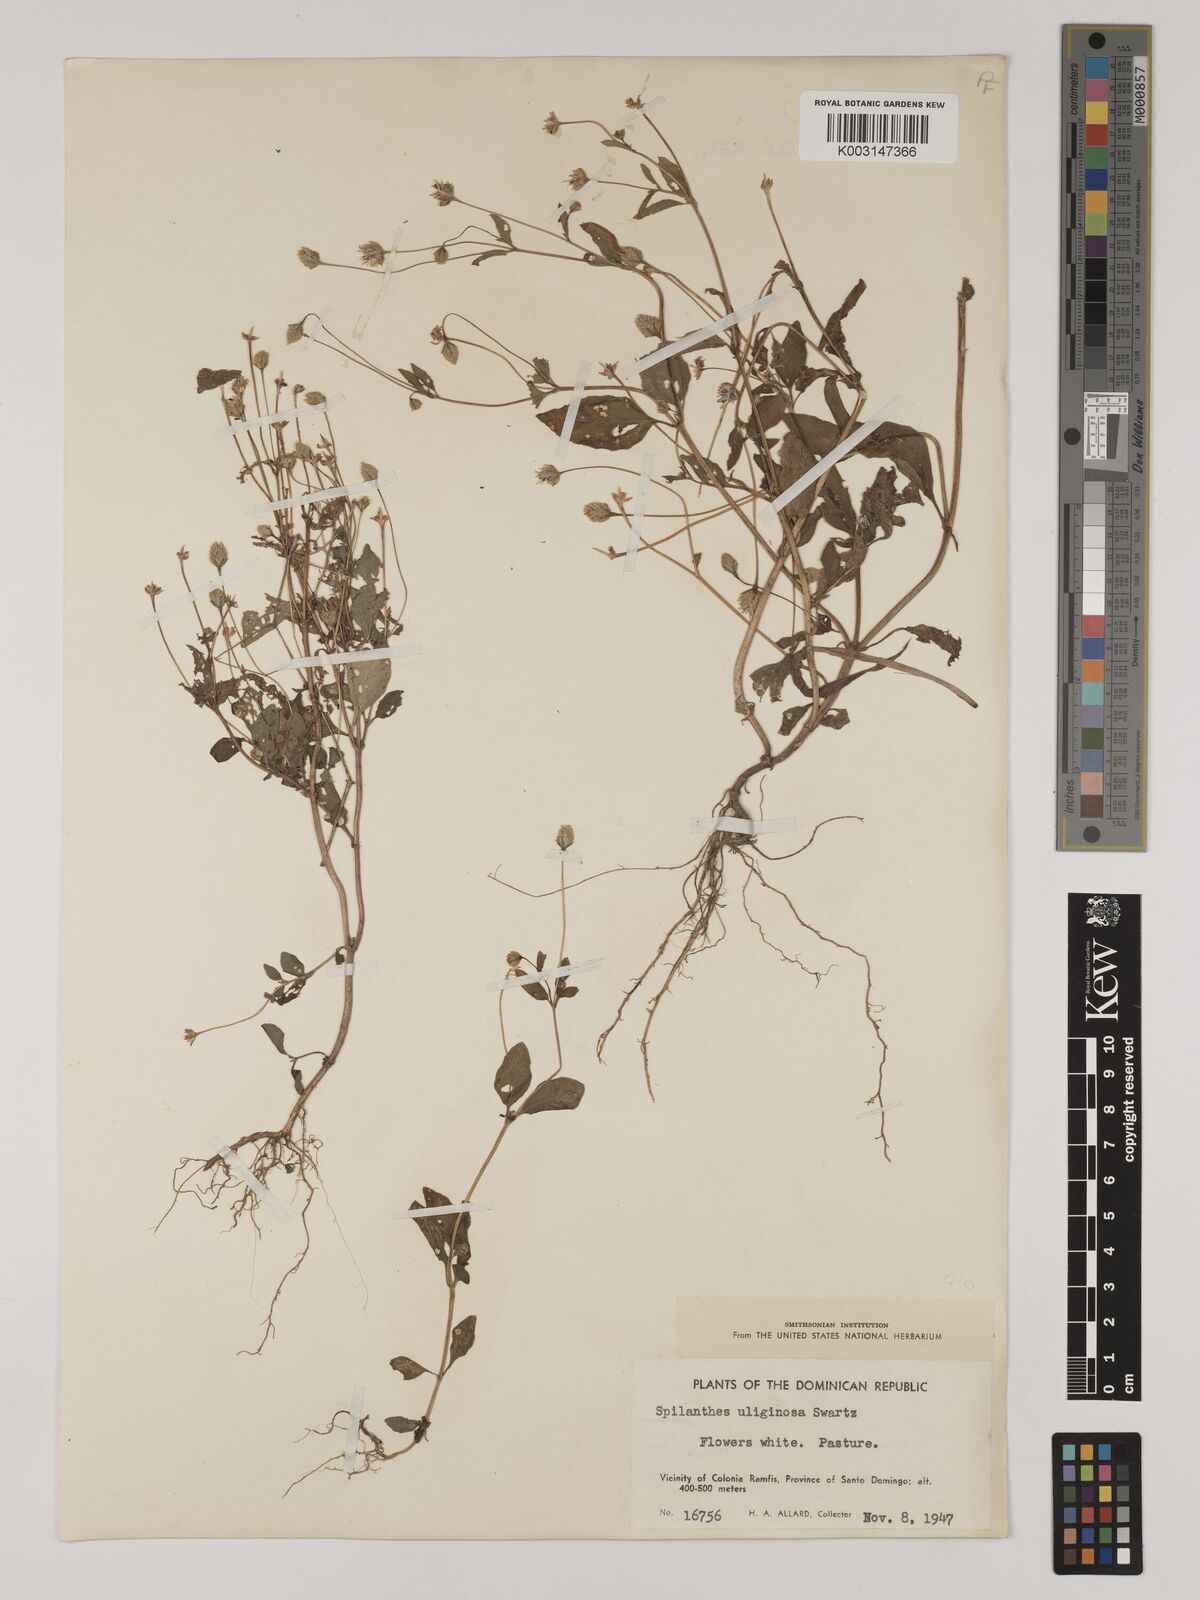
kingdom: Plantae
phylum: Tracheophyta
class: Magnoliopsida
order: Asterales
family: Asteraceae
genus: Acmella
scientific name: Acmella uliginosa
